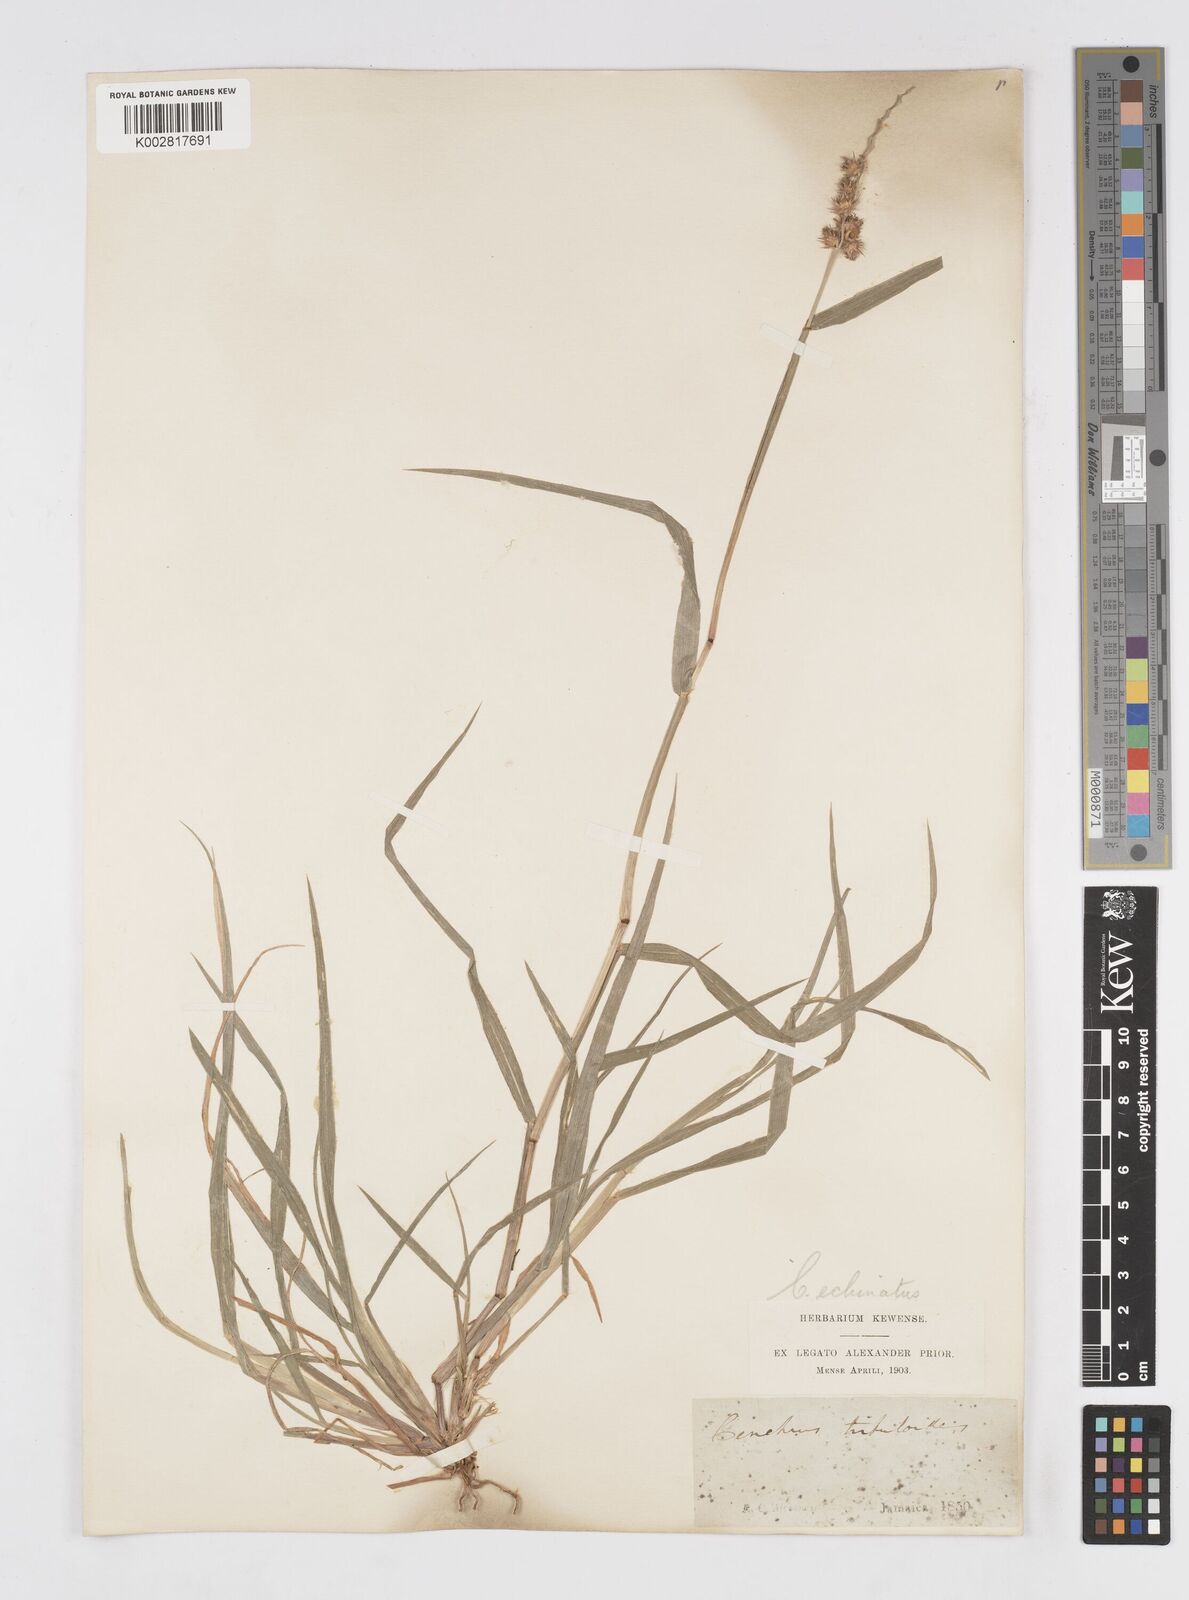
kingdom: Plantae
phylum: Tracheophyta
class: Liliopsida
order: Poales
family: Poaceae
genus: Cenchrus
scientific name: Cenchrus
